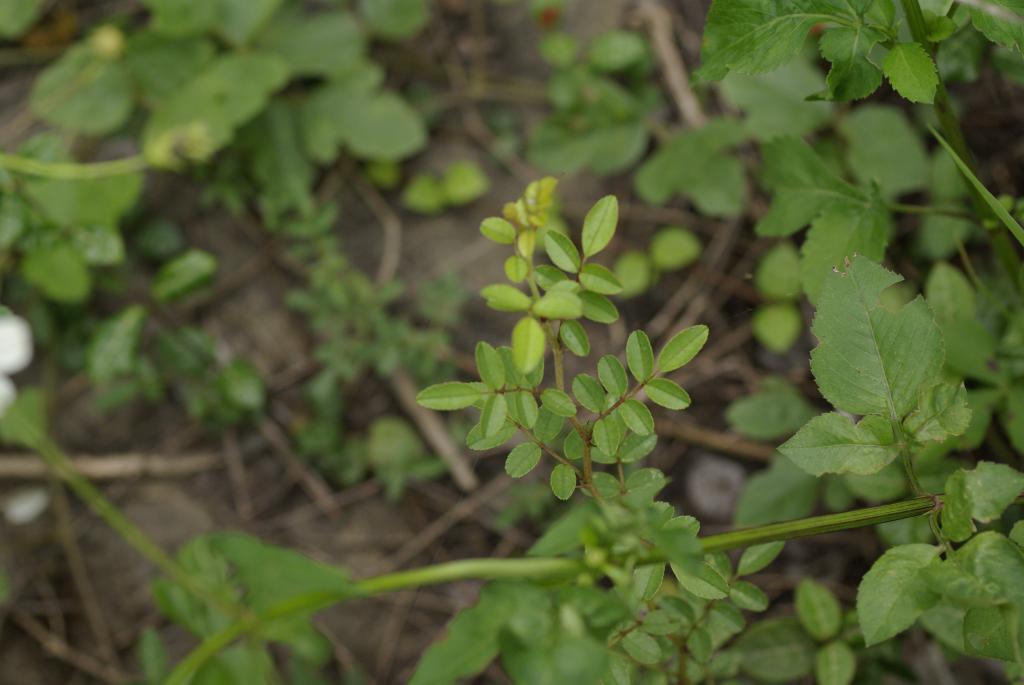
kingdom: Plantae
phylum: Tracheophyta
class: Magnoliopsida
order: Rosales
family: Rosaceae
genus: Rosa
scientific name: Rosa bracteata
